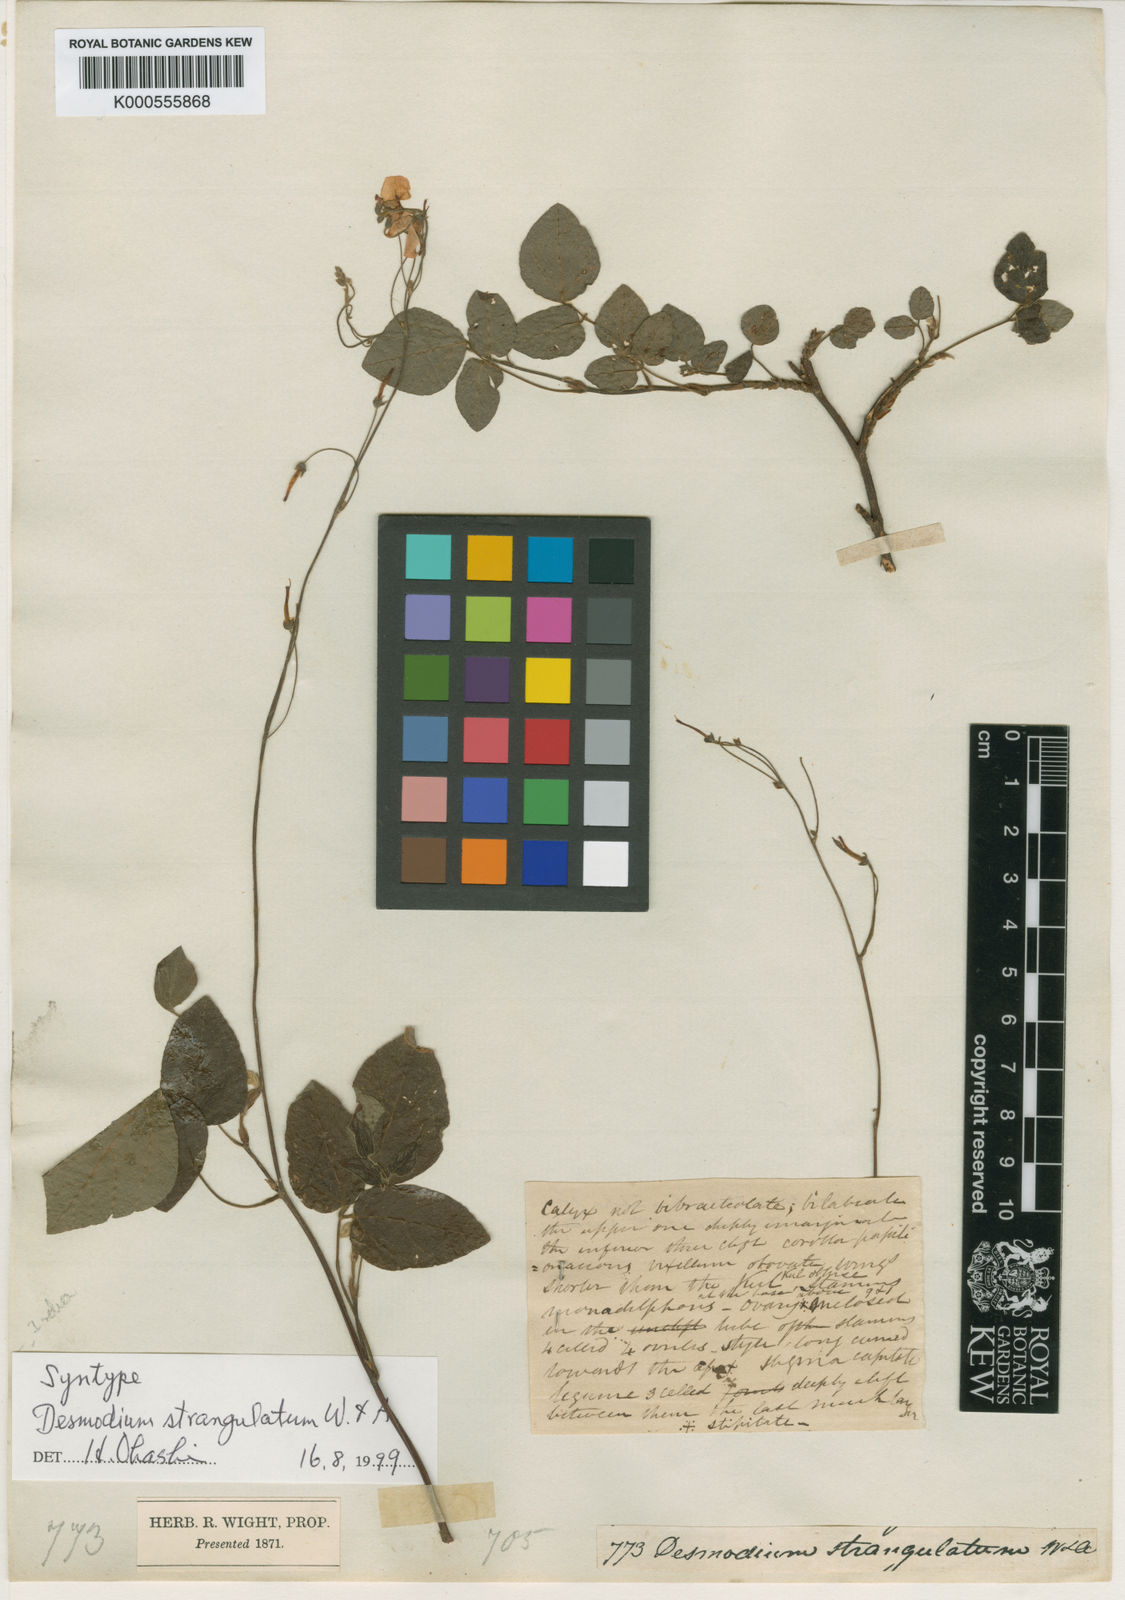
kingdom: Plantae
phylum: Tracheophyta
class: Magnoliopsida
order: Fabales
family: Fabaceae
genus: Hylodesmum
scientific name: Hylodesmum repandum
